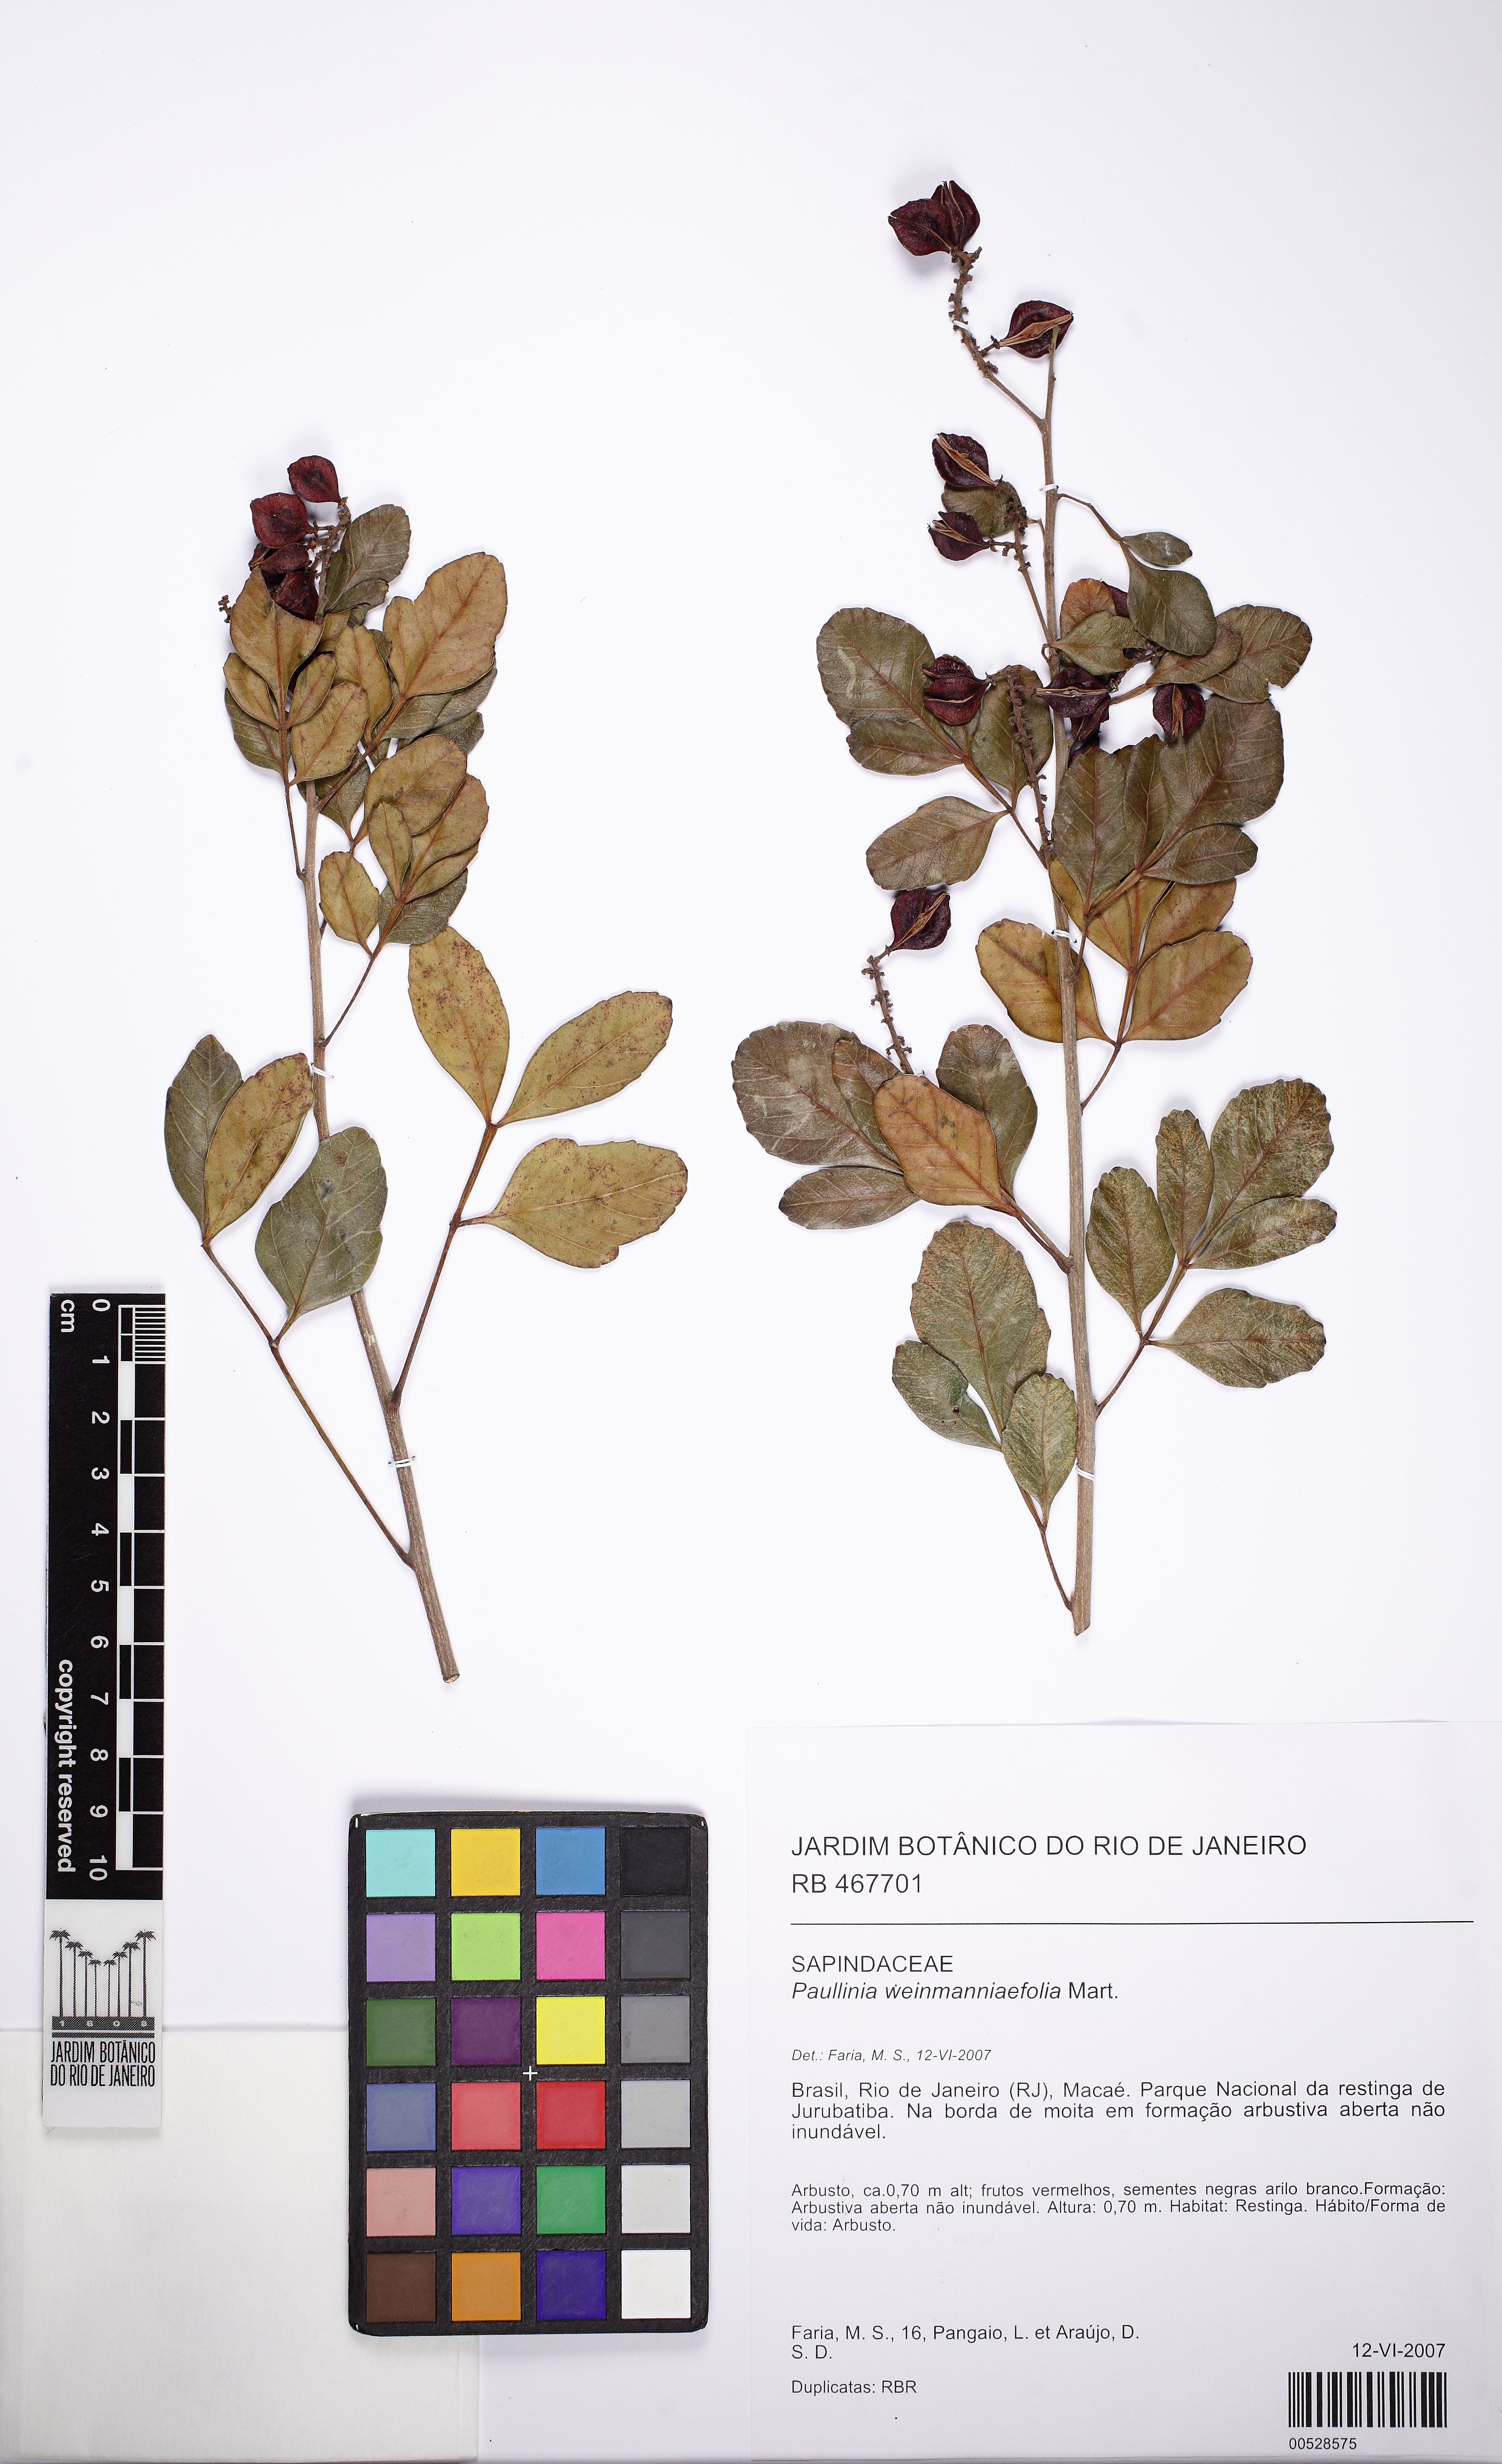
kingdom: Plantae
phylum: Tracheophyta
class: Magnoliopsida
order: Sapindales
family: Sapindaceae
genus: Paullinia
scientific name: Paullinia weinmanniifolia
